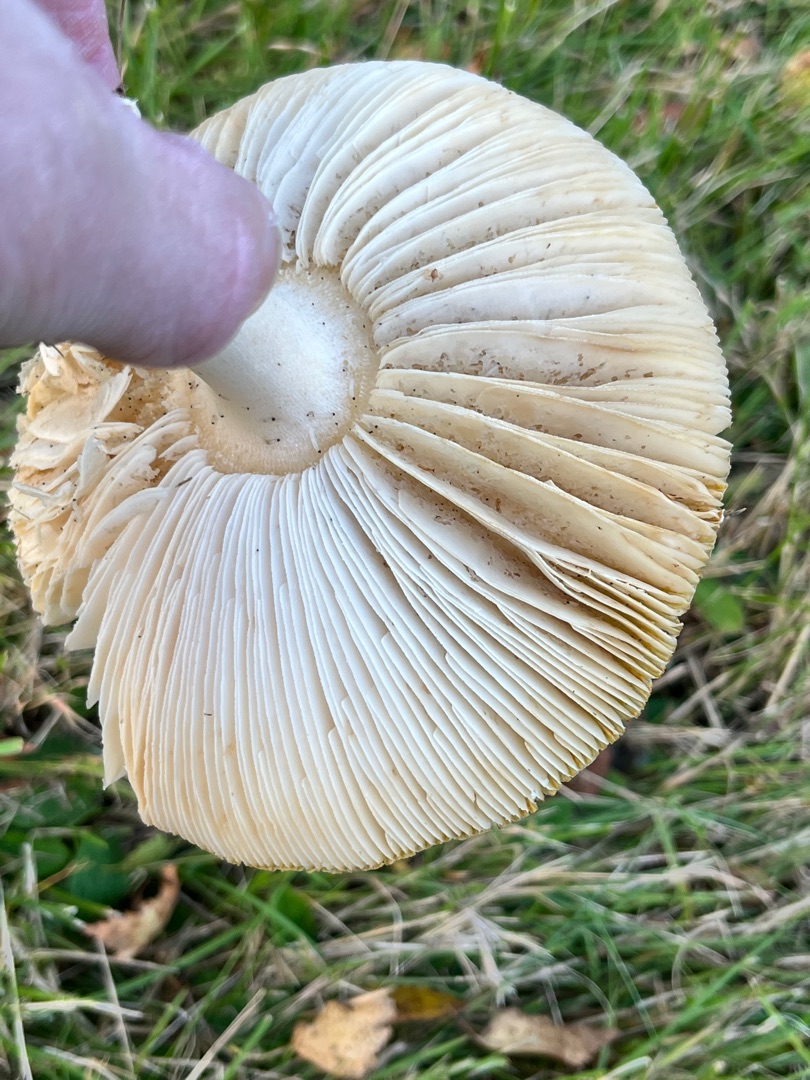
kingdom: Fungi
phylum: Basidiomycota
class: Agaricomycetes
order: Agaricales
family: Amanitaceae
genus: Amanita
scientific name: Amanita muscaria
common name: Rød fluesvamp
